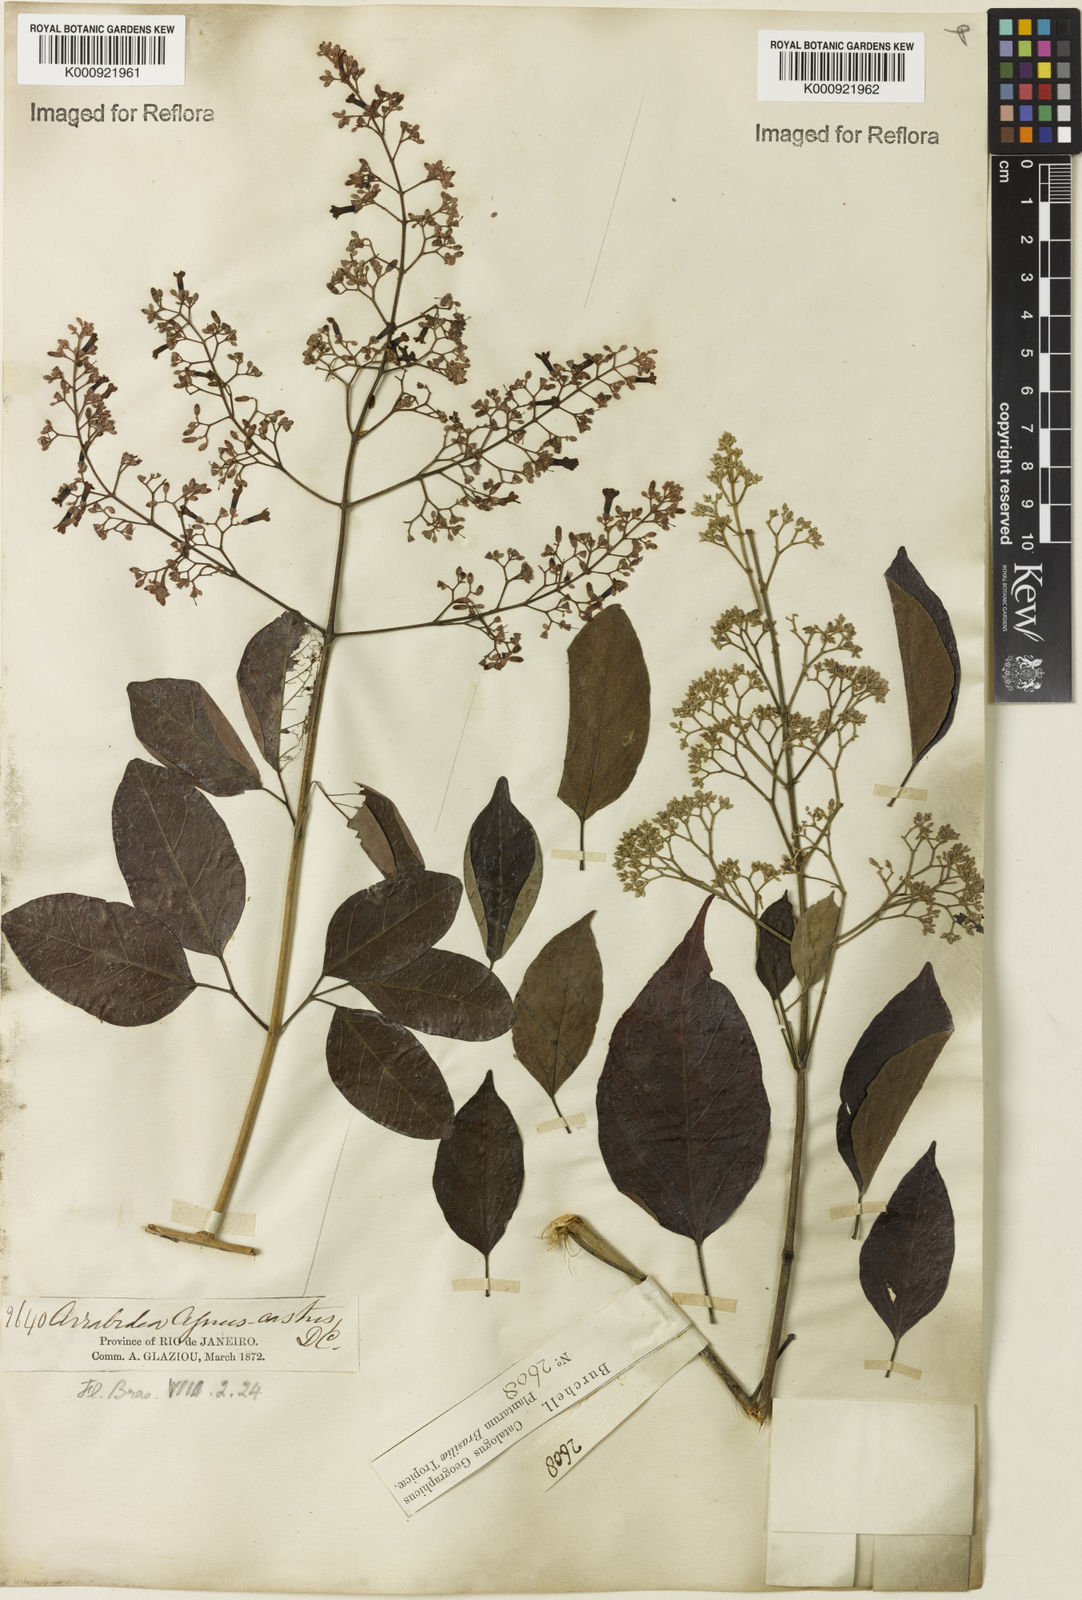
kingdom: Plantae
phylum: Tracheophyta
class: Magnoliopsida
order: Lamiales
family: Bignoniaceae
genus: Fridericia
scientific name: Fridericia rego
